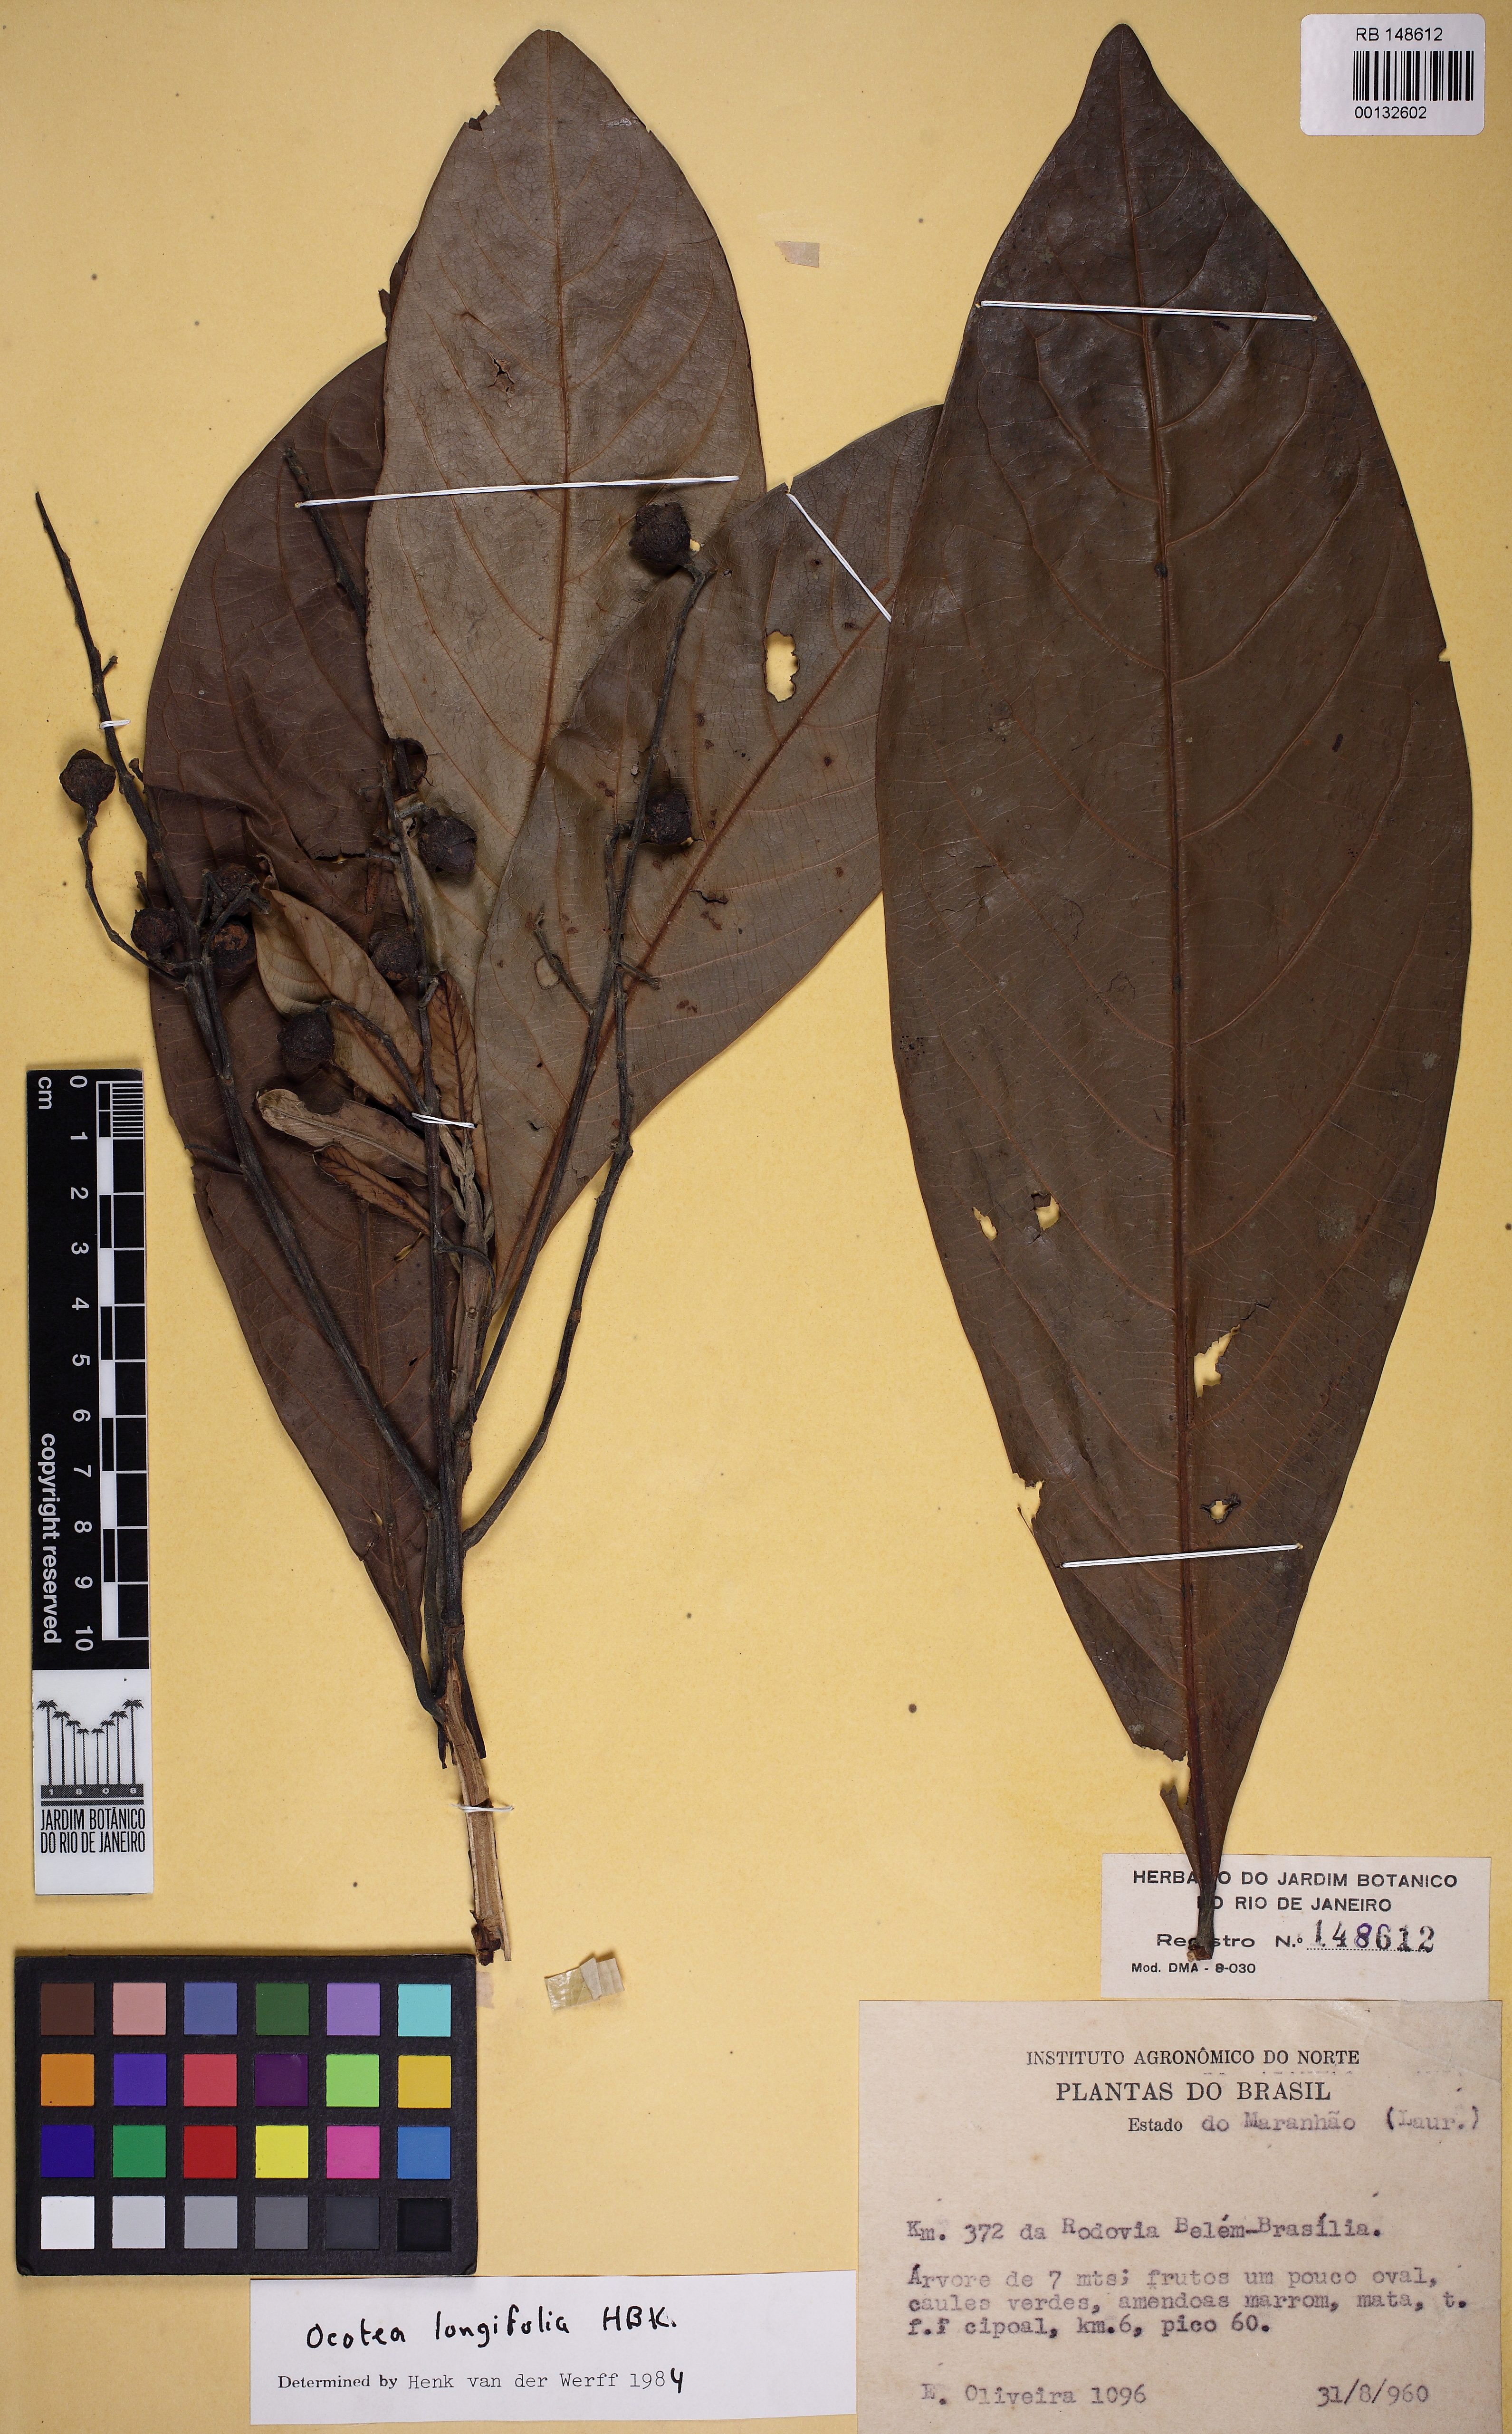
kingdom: Plantae
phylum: Tracheophyta
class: Magnoliopsida
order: Laurales
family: Lauraceae
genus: Mespilodaphne
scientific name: Mespilodaphne opifera
